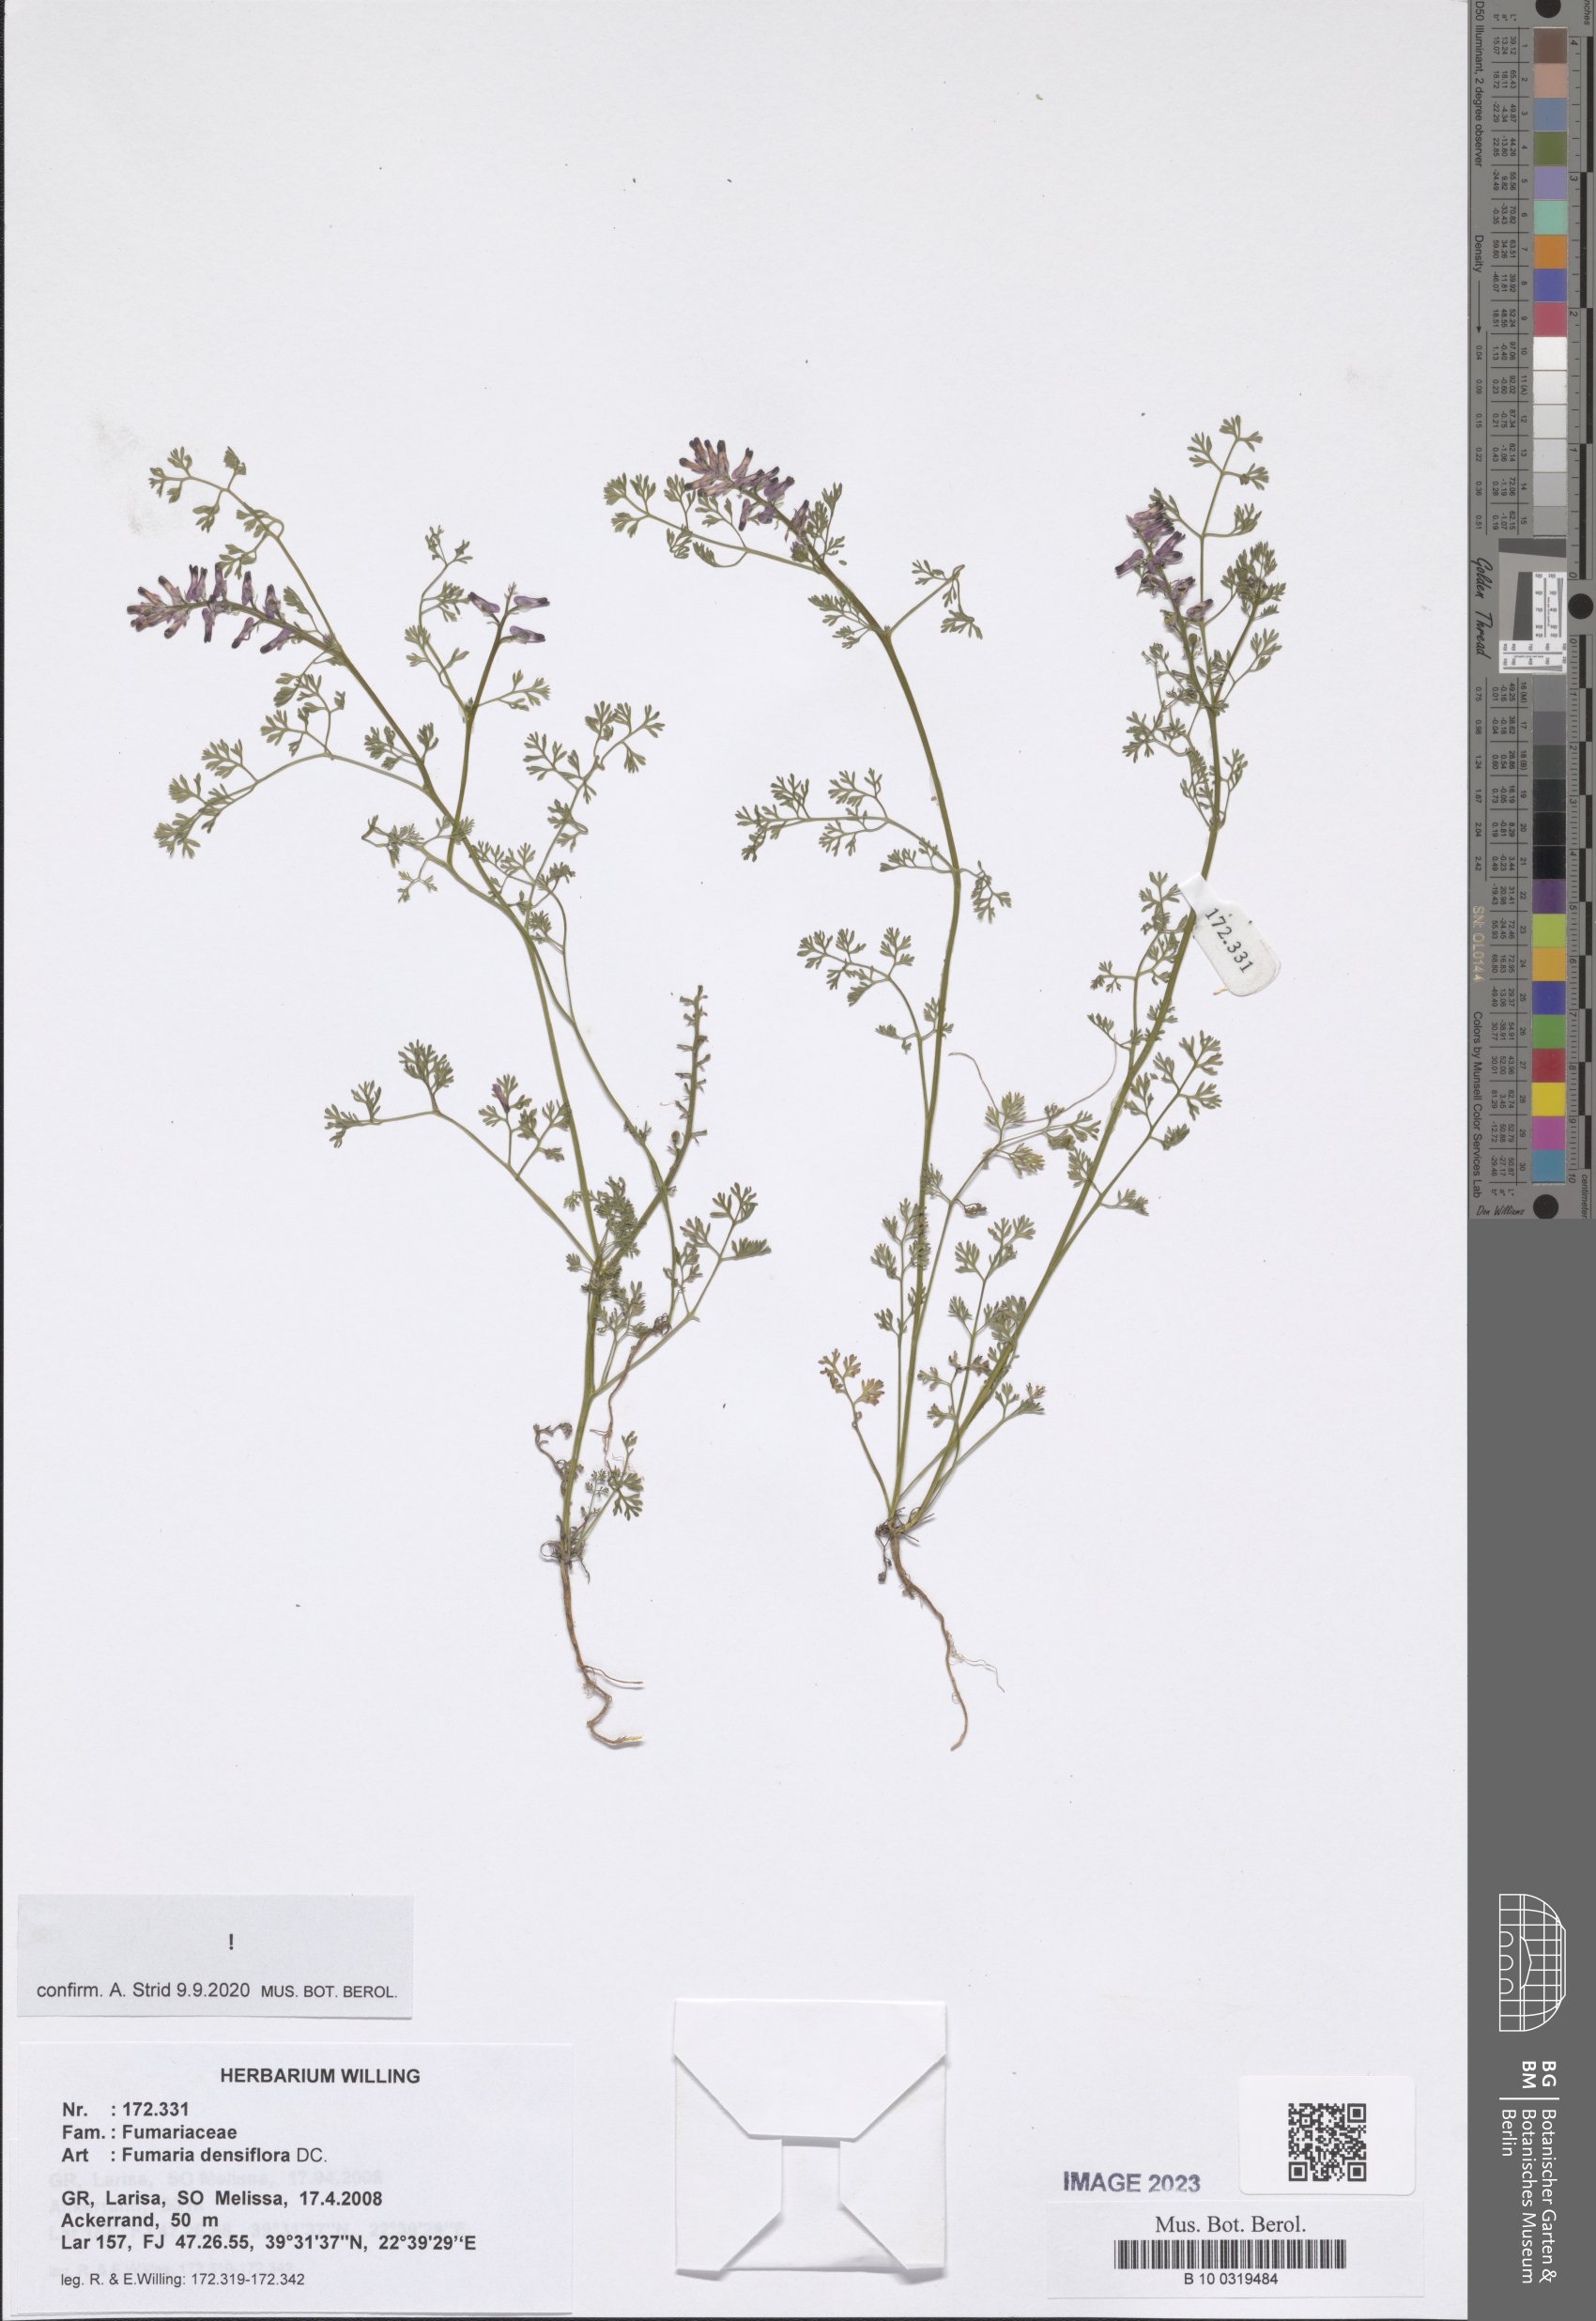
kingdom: Plantae
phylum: Tracheophyta
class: Magnoliopsida
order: Ranunculales
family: Papaveraceae
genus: Fumaria
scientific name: Fumaria densiflora
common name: Dense-flowered fumitory
